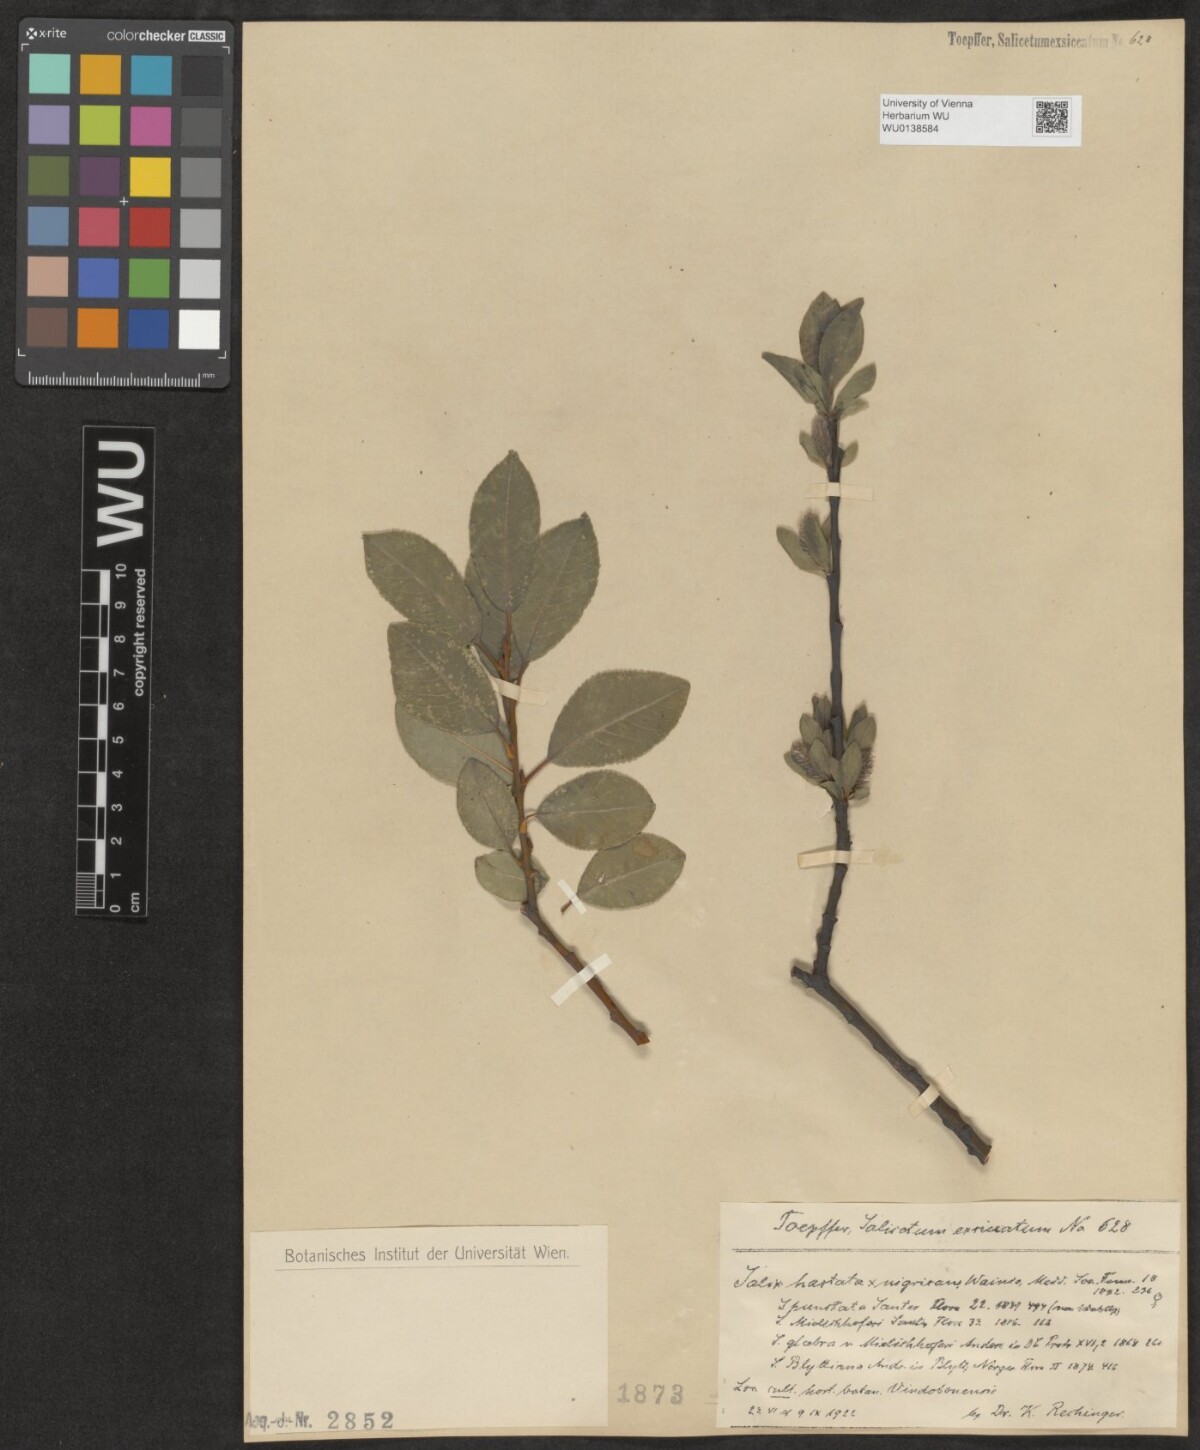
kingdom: Plantae
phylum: Tracheophyta
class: Magnoliopsida
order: Malpighiales
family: Salicaceae
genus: Salix
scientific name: Salix mielichhoferi
